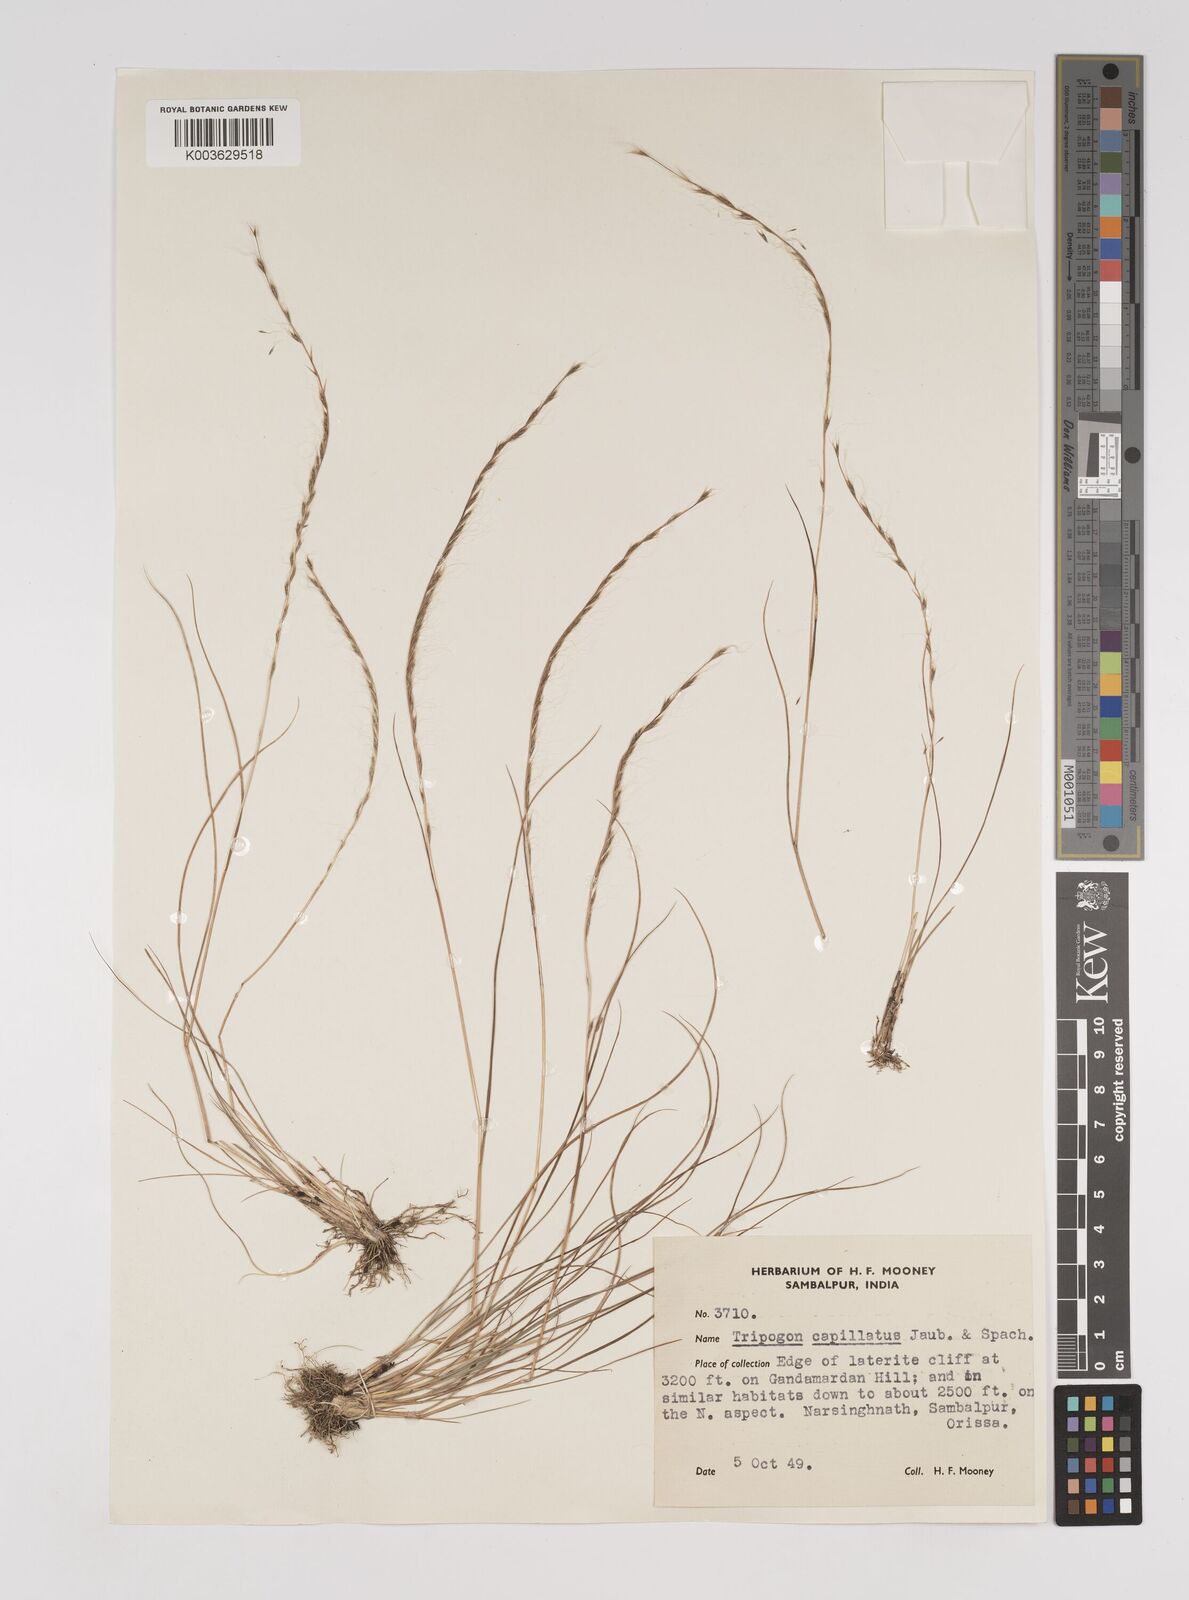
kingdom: Plantae
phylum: Tracheophyta
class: Liliopsida
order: Poales
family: Poaceae
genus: Tripogon
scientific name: Tripogon capillatus
